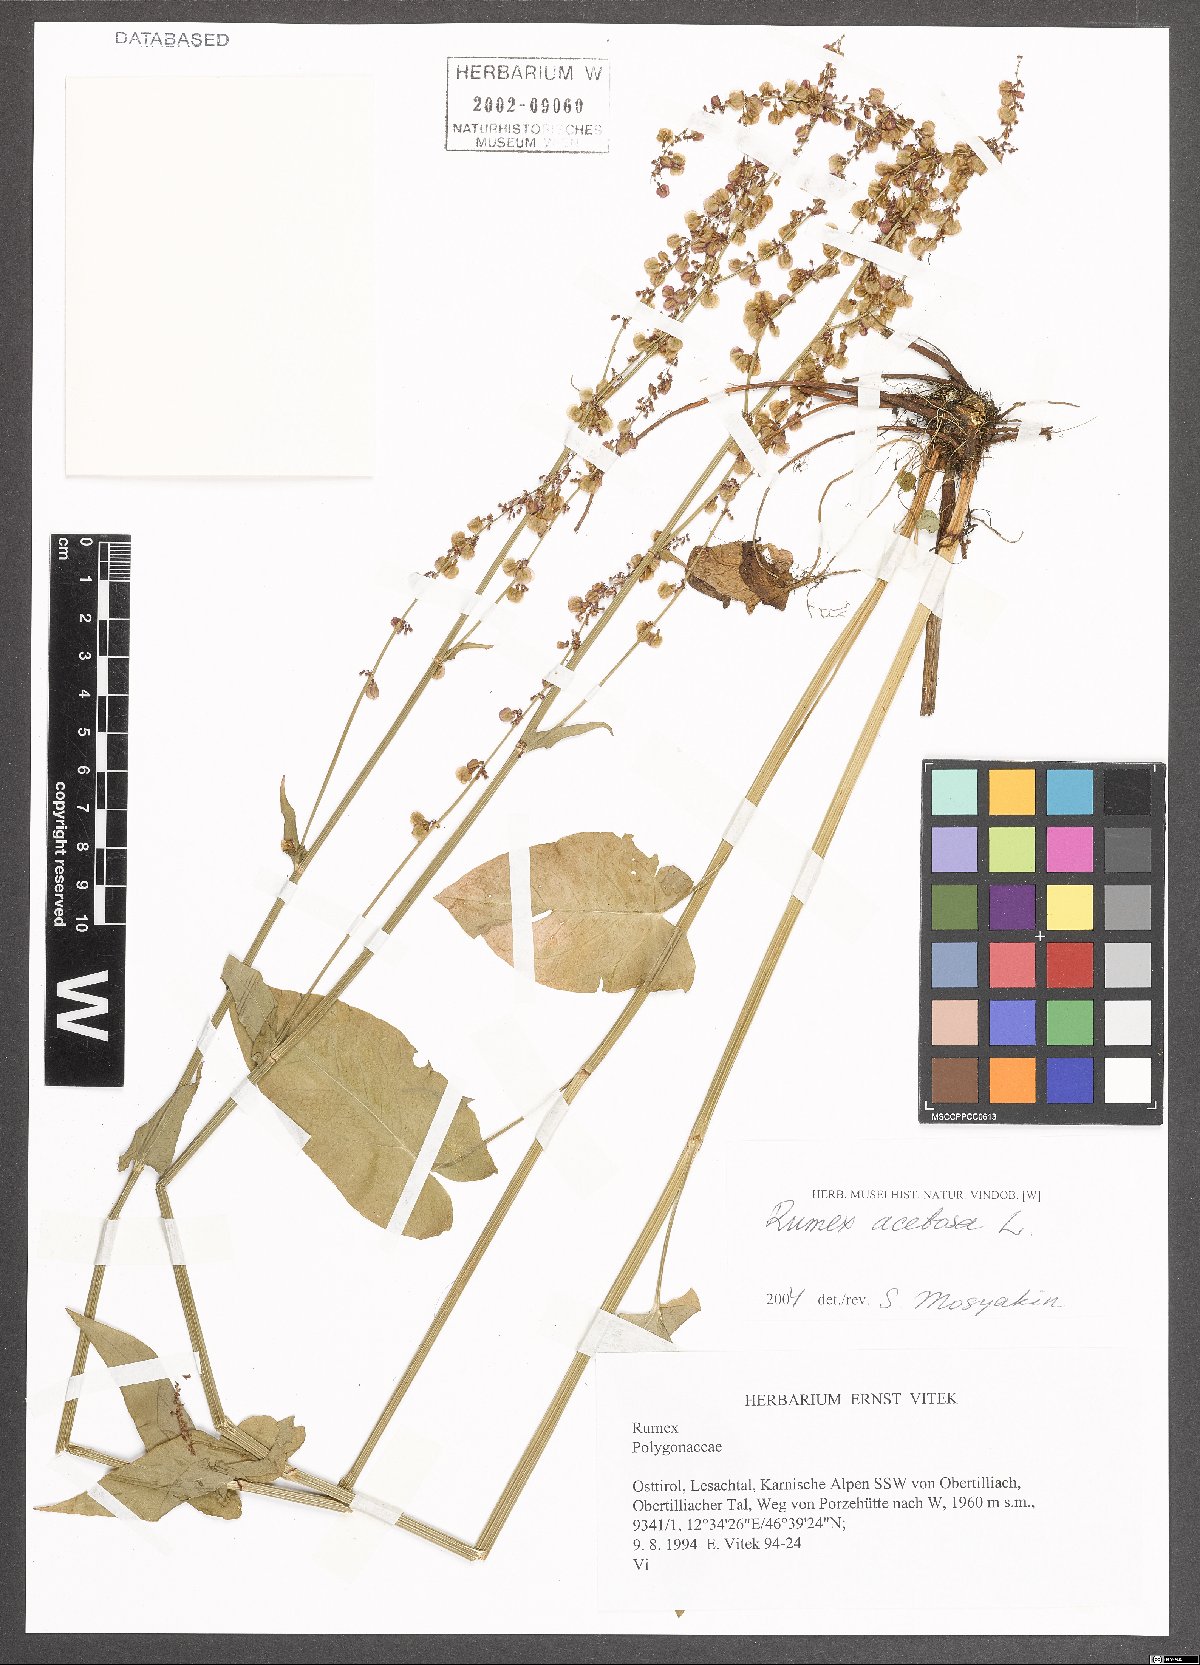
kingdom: Plantae
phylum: Tracheophyta
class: Magnoliopsida
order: Caryophyllales
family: Polygonaceae
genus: Rumex
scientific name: Rumex acetosa
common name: Garden sorrel
